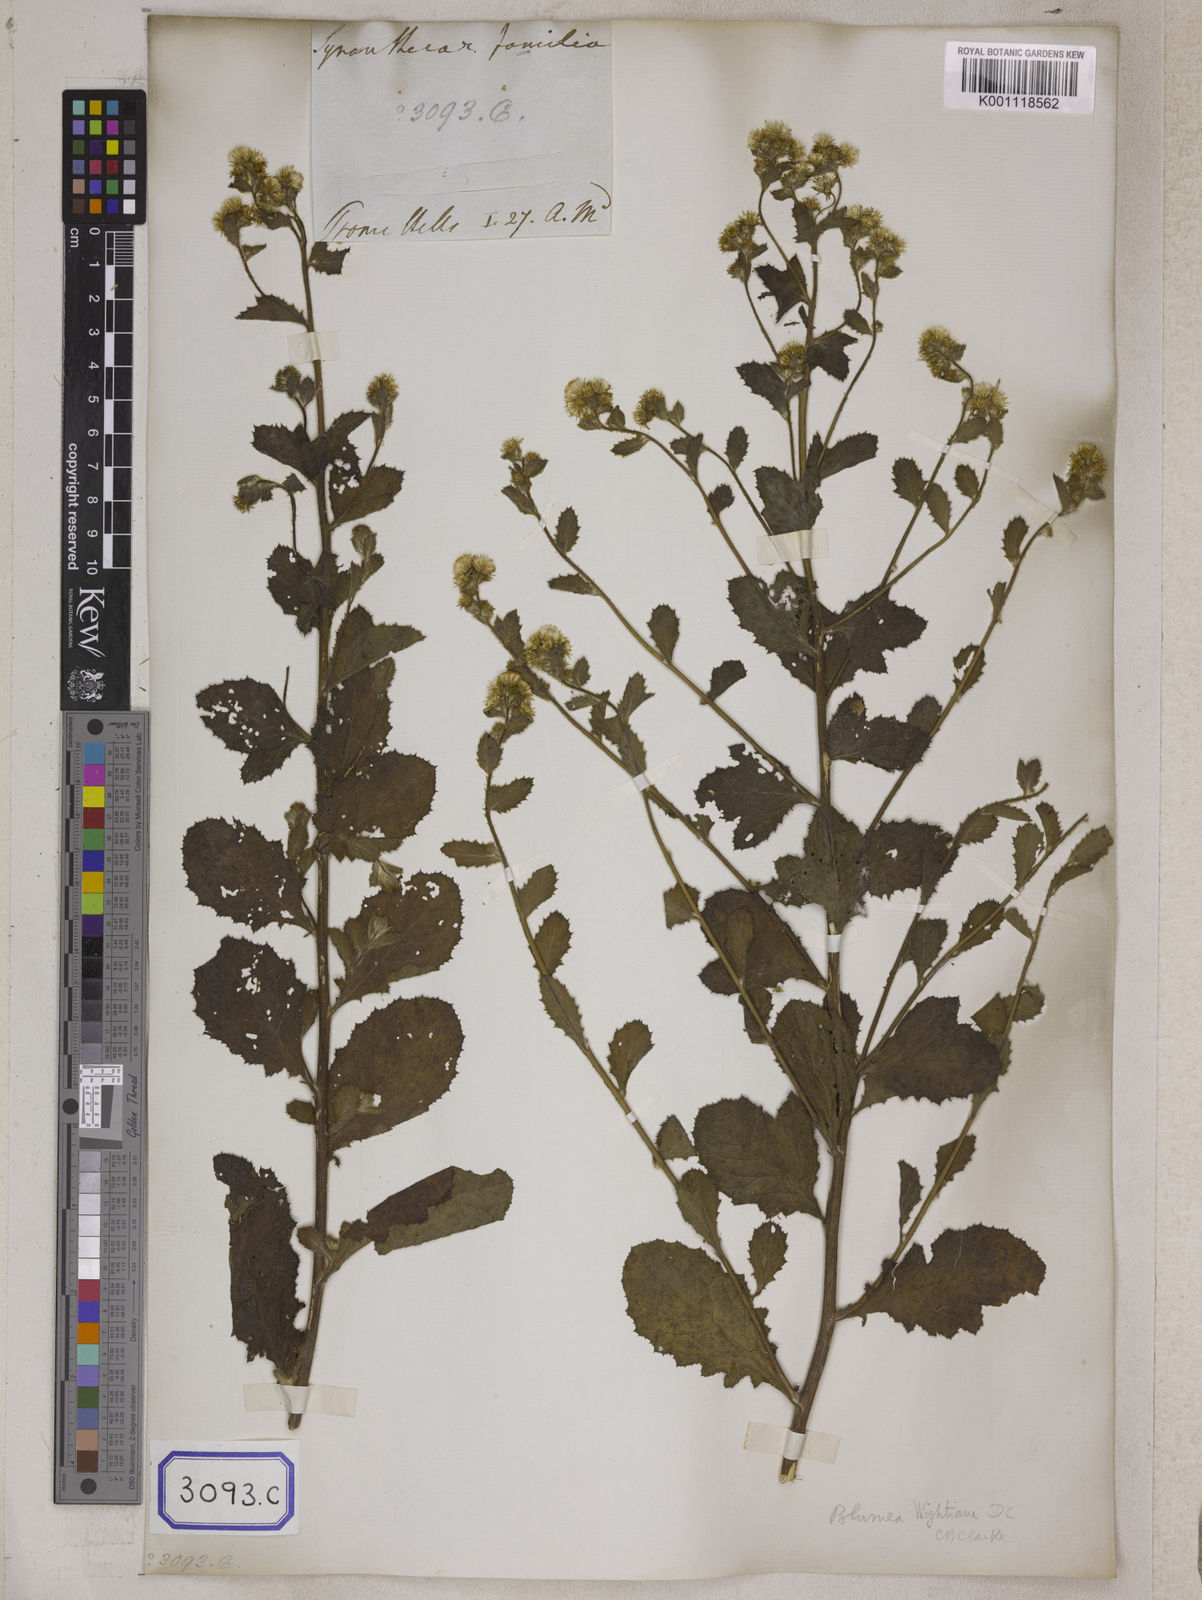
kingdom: Plantae
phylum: Tracheophyta
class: Magnoliopsida
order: Asterales
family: Asteraceae
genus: Strobocalyx
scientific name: Strobocalyx arborea
